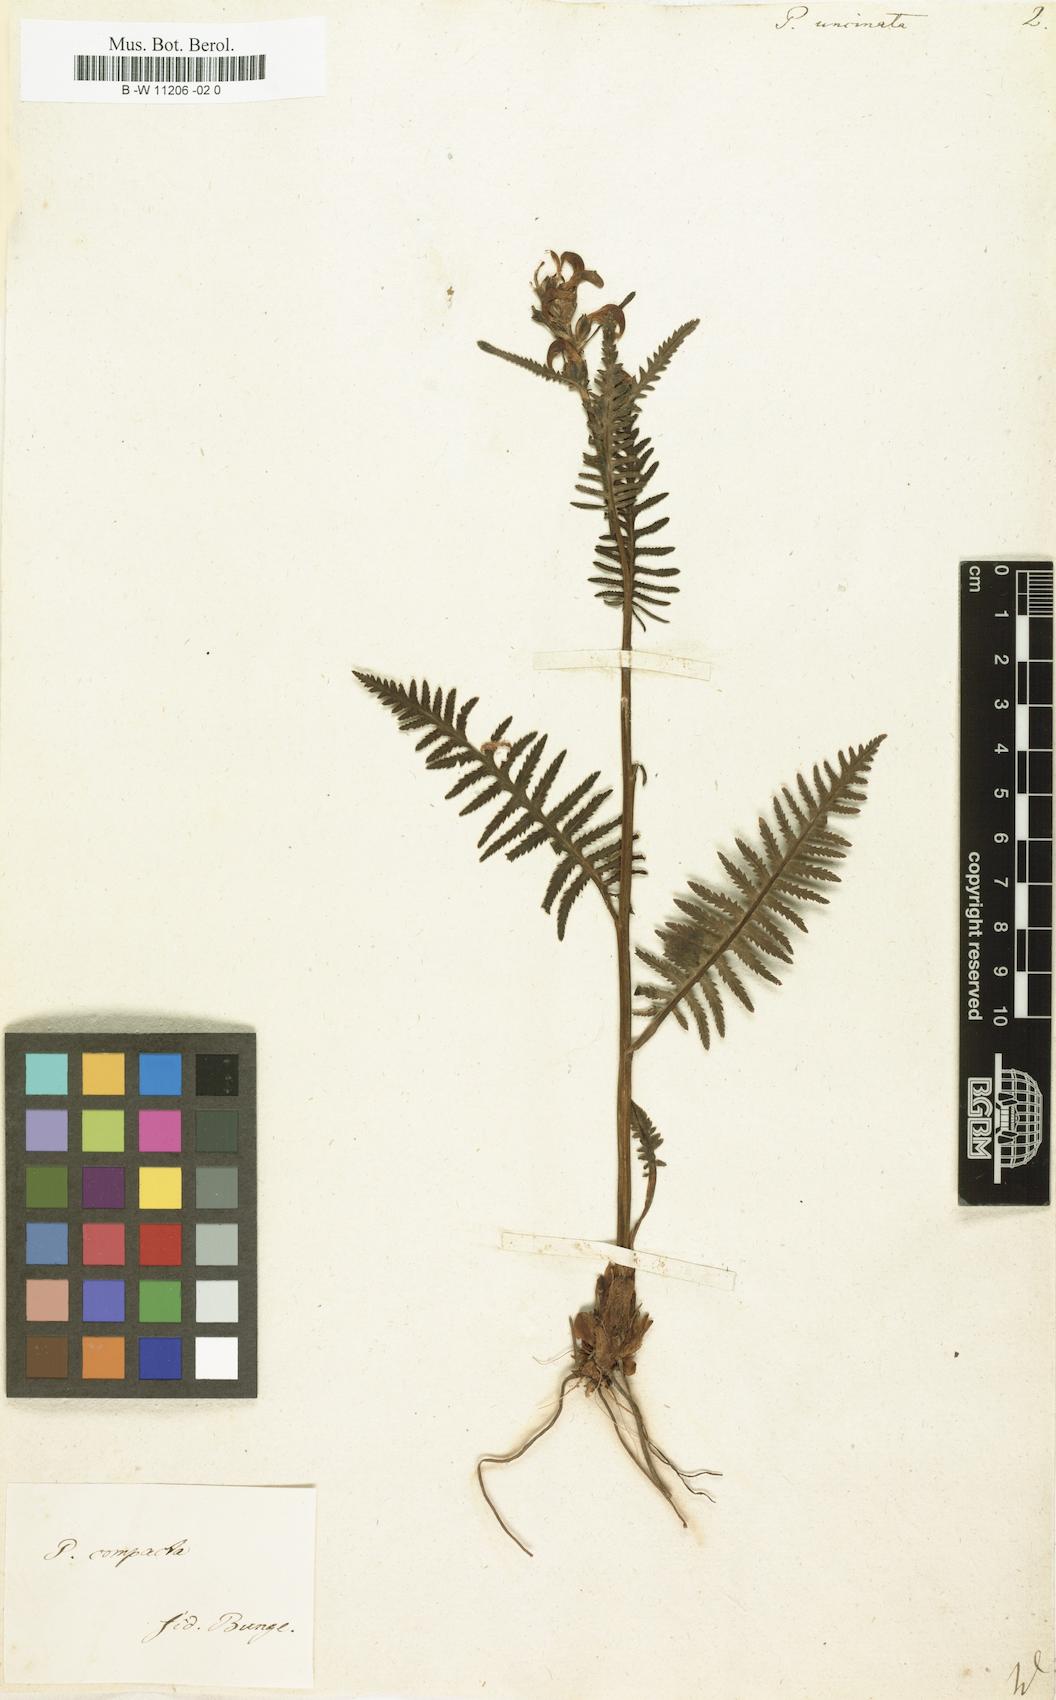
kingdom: Plantae
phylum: Tracheophyta
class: Magnoliopsida
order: Lamiales
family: Orobanchaceae
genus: Pedicularis
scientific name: Pedicularis
